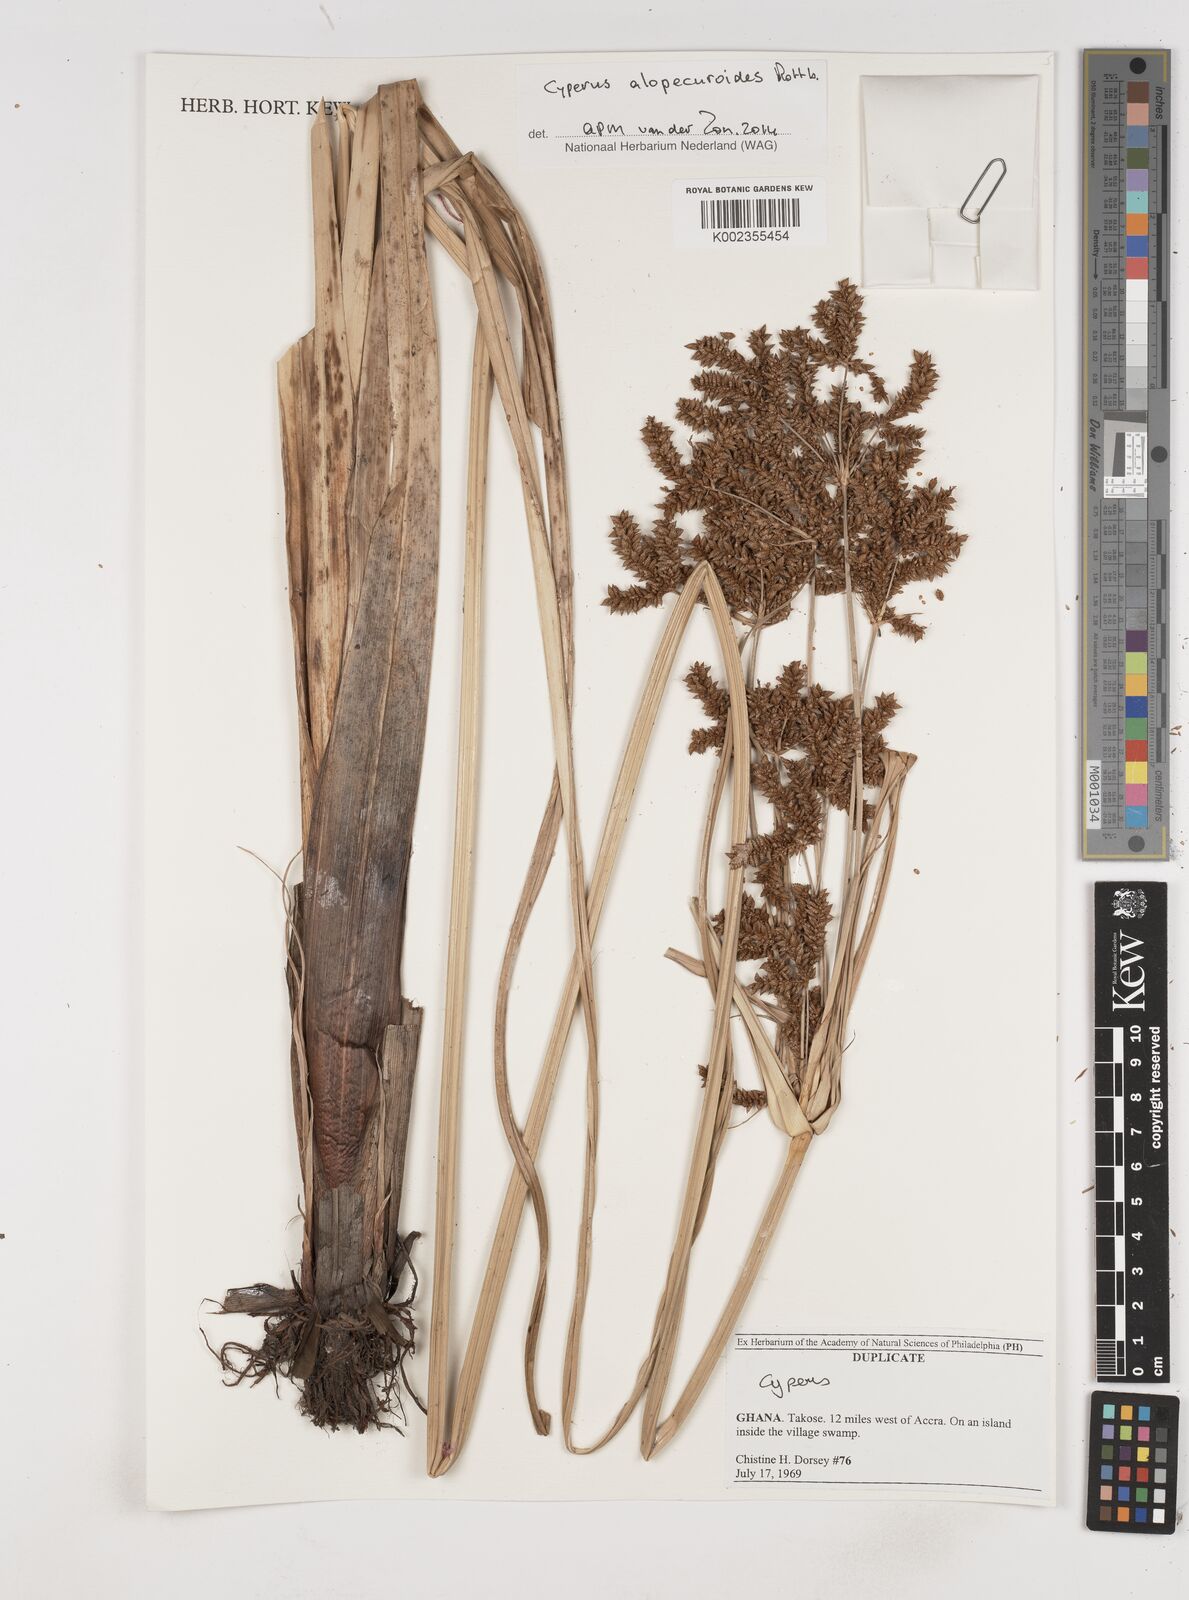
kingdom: Plantae
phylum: Tracheophyta
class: Liliopsida
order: Poales
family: Cyperaceae
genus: Cyperus
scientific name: Cyperus alopecuroides
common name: Foxtail flatsedge
